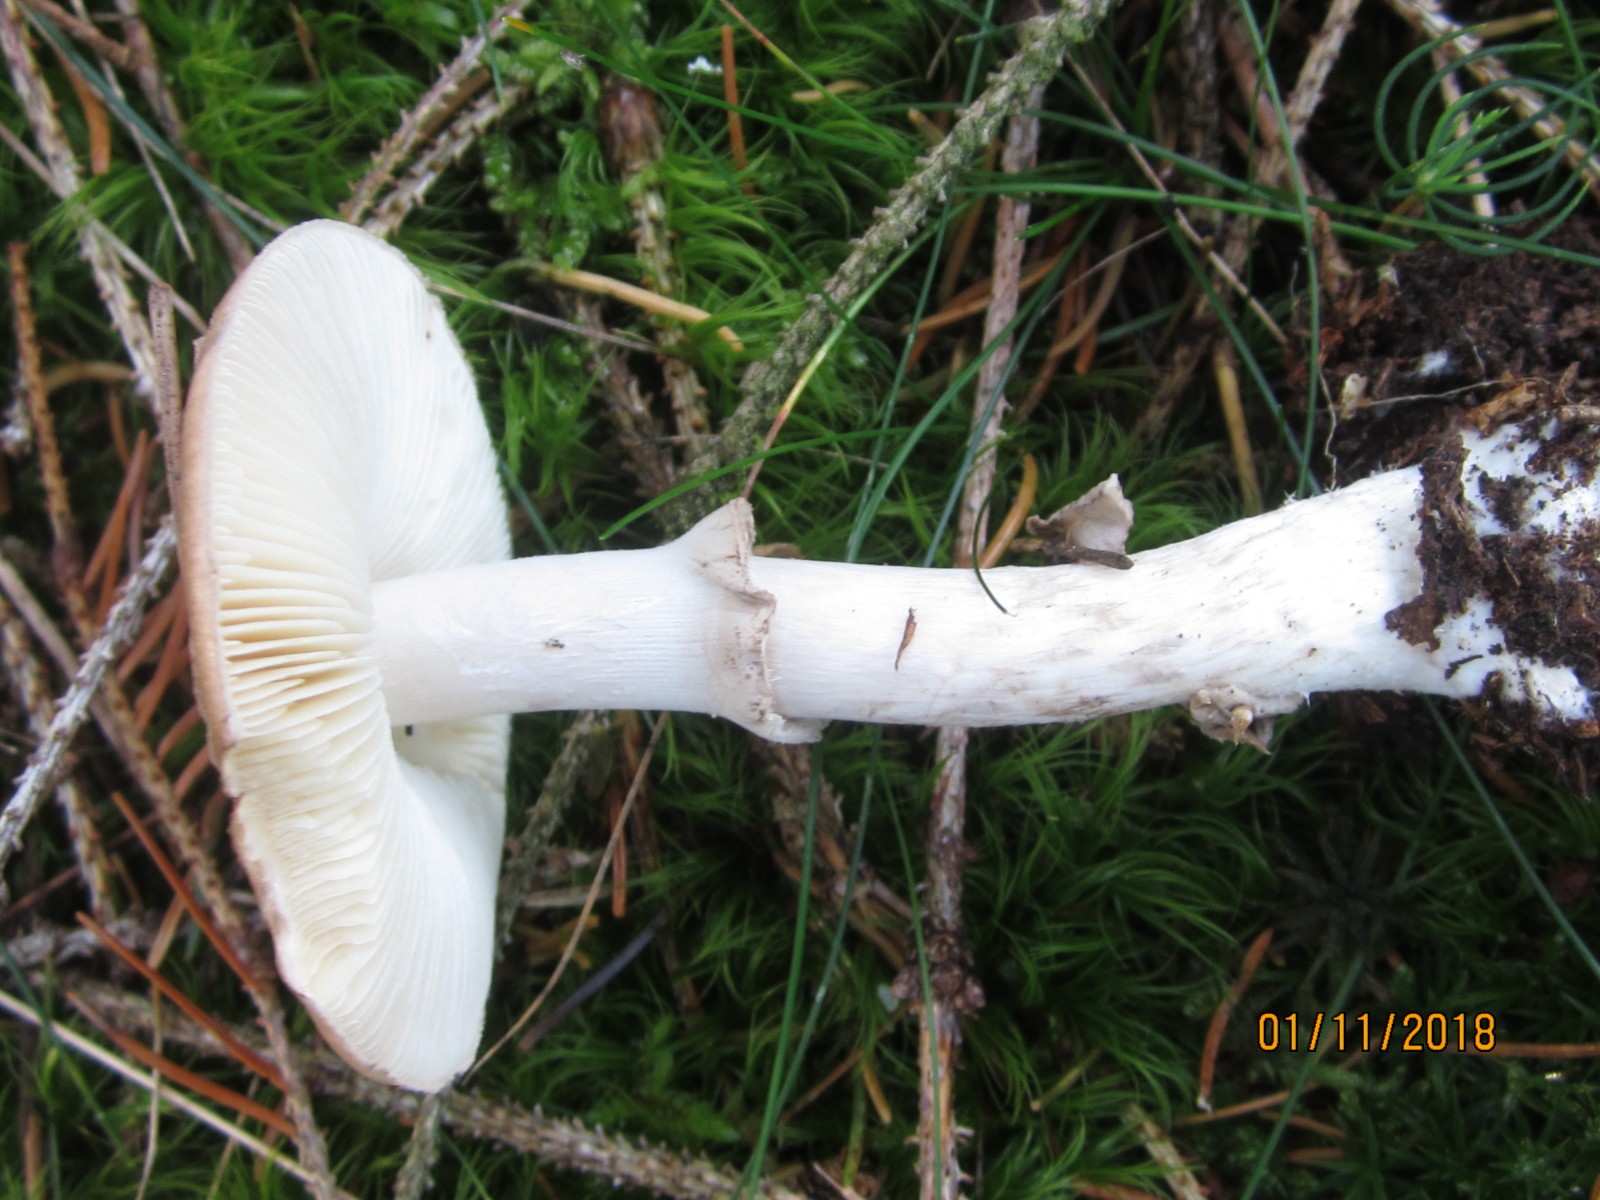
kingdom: Fungi
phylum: Basidiomycota
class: Agaricomycetes
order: Agaricales
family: Amanitaceae
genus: Amanita
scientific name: Amanita porphyria
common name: porfyr-fluesvamp
